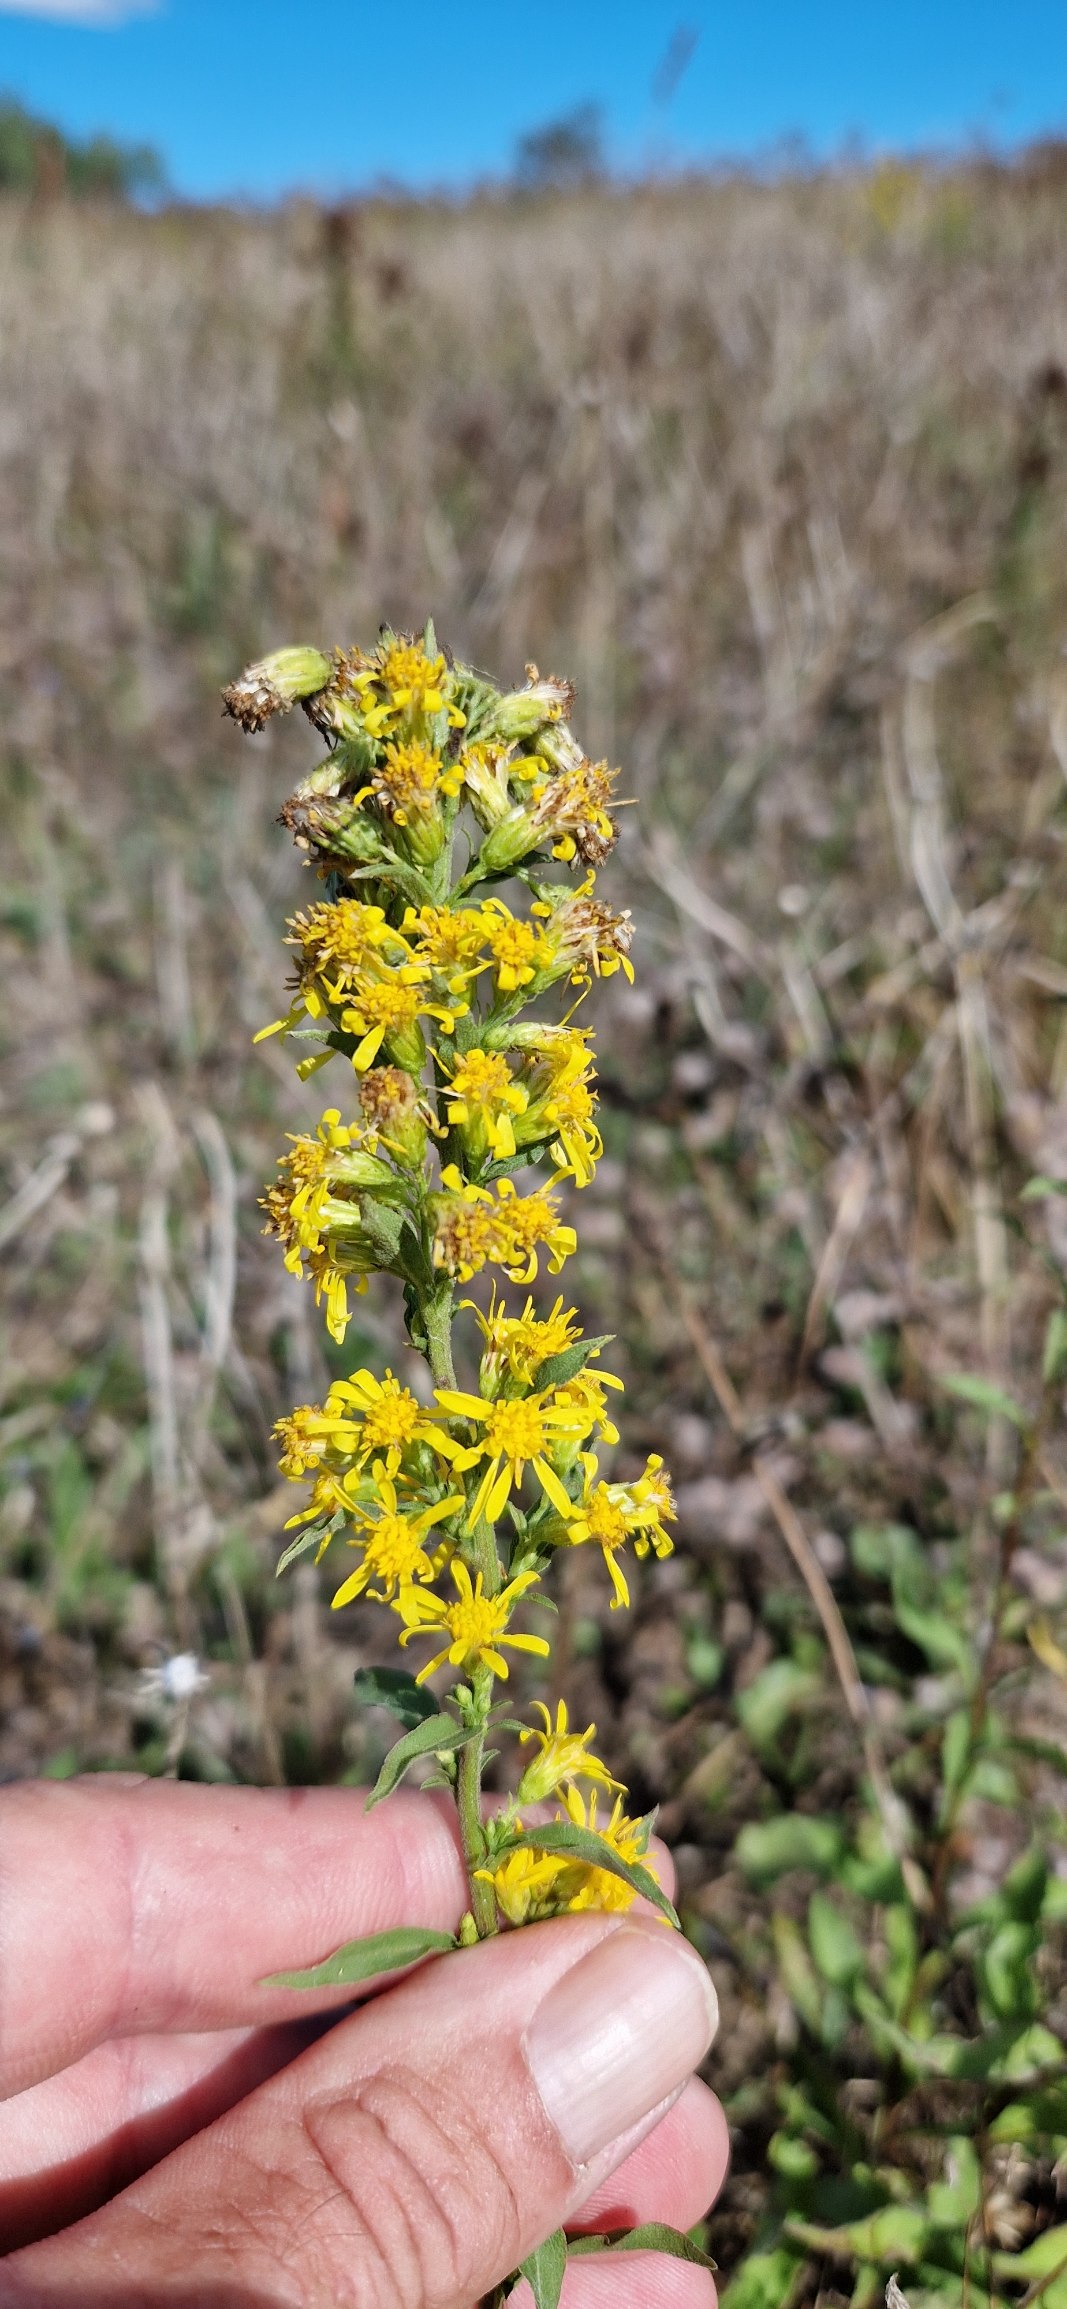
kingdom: Plantae
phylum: Tracheophyta
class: Magnoliopsida
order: Asterales
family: Asteraceae
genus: Solidago
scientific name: Solidago virgaurea
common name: Almindelig gyldenris
